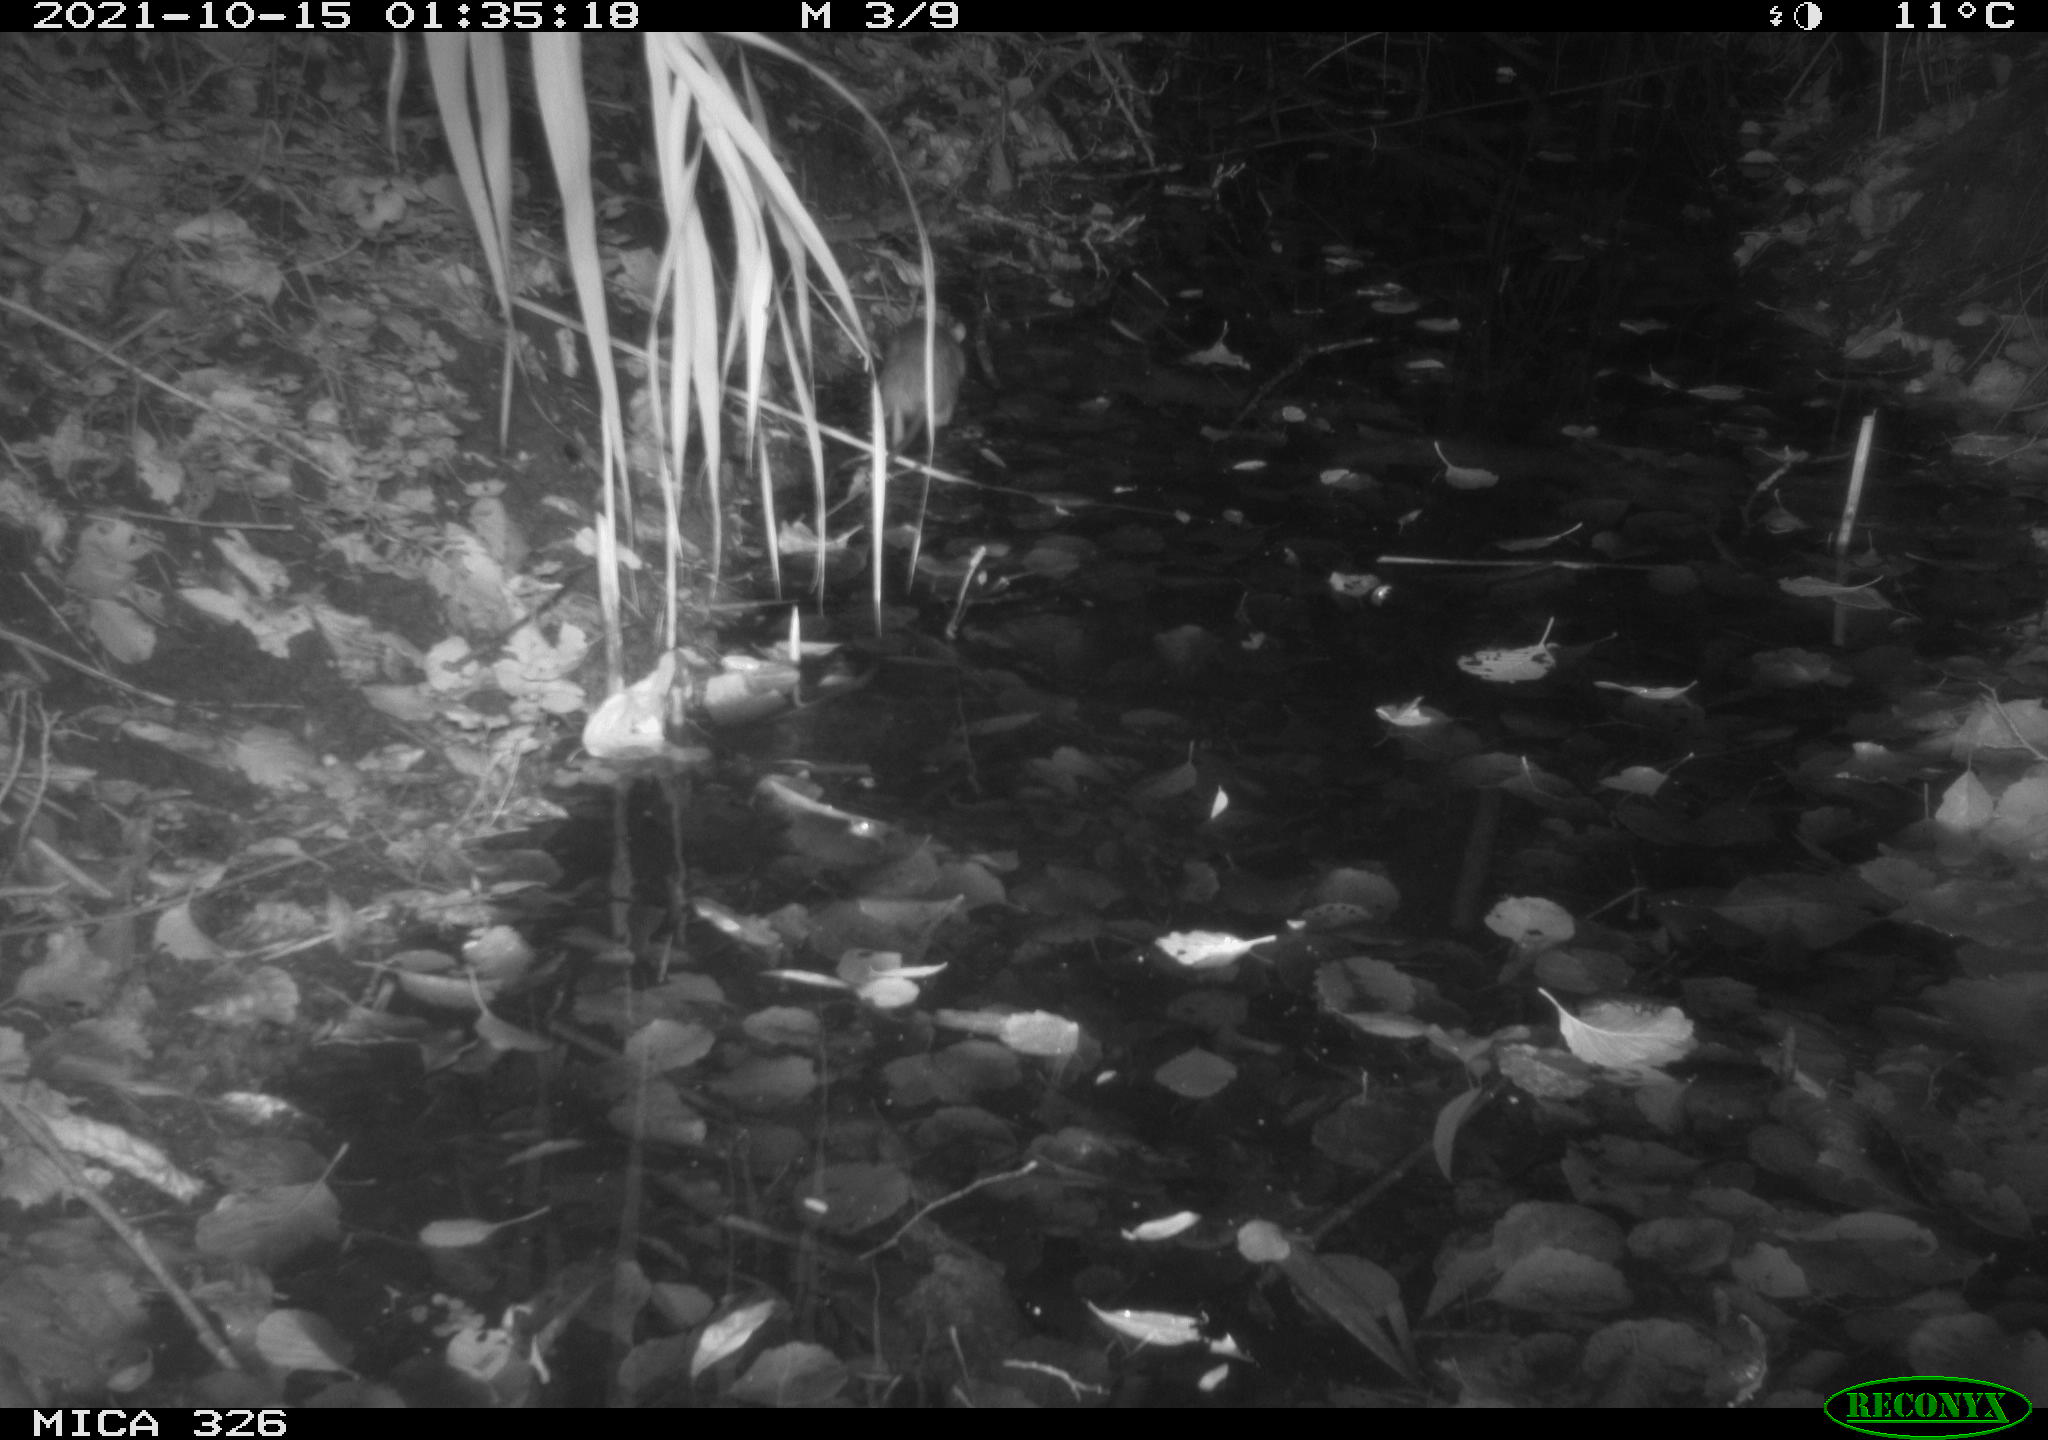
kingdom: Animalia
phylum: Chordata
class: Mammalia
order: Rodentia
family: Muridae
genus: Rattus
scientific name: Rattus norvegicus
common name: Brown rat
